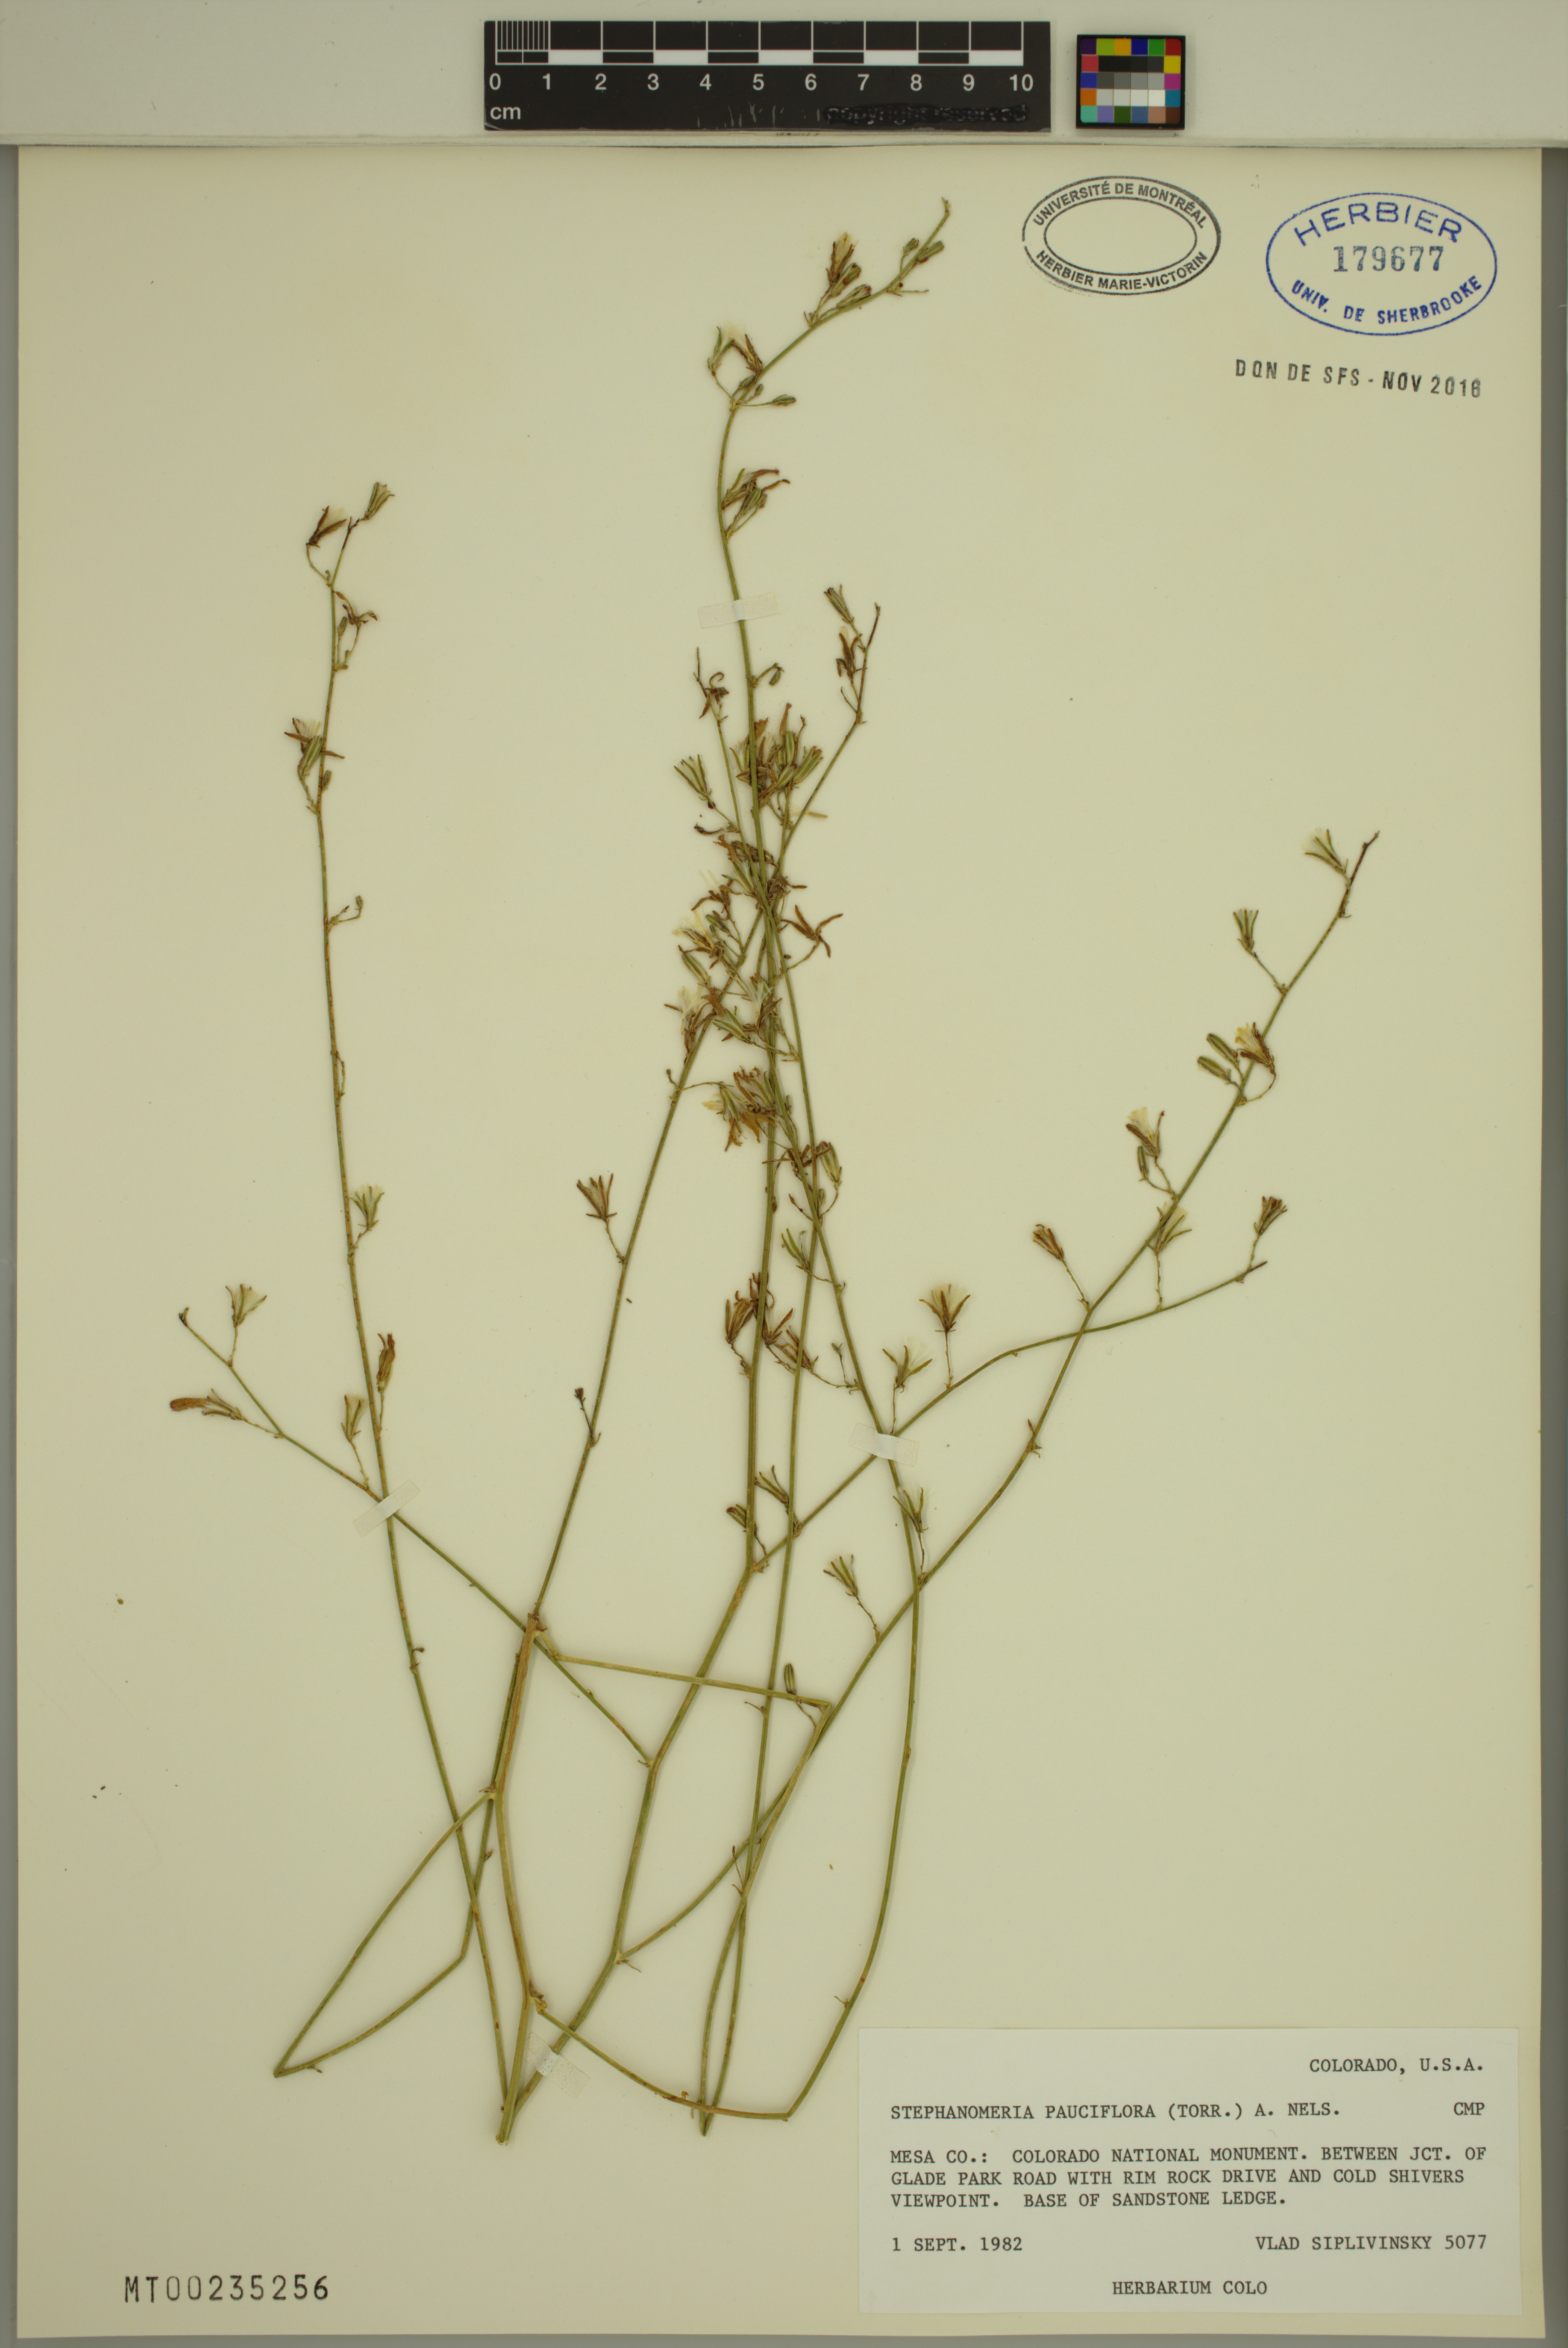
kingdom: Plantae
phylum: Tracheophyta
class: Magnoliopsida
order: Asterales
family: Asteraceae
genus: Stephanomeria
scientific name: Stephanomeria pauciflora
